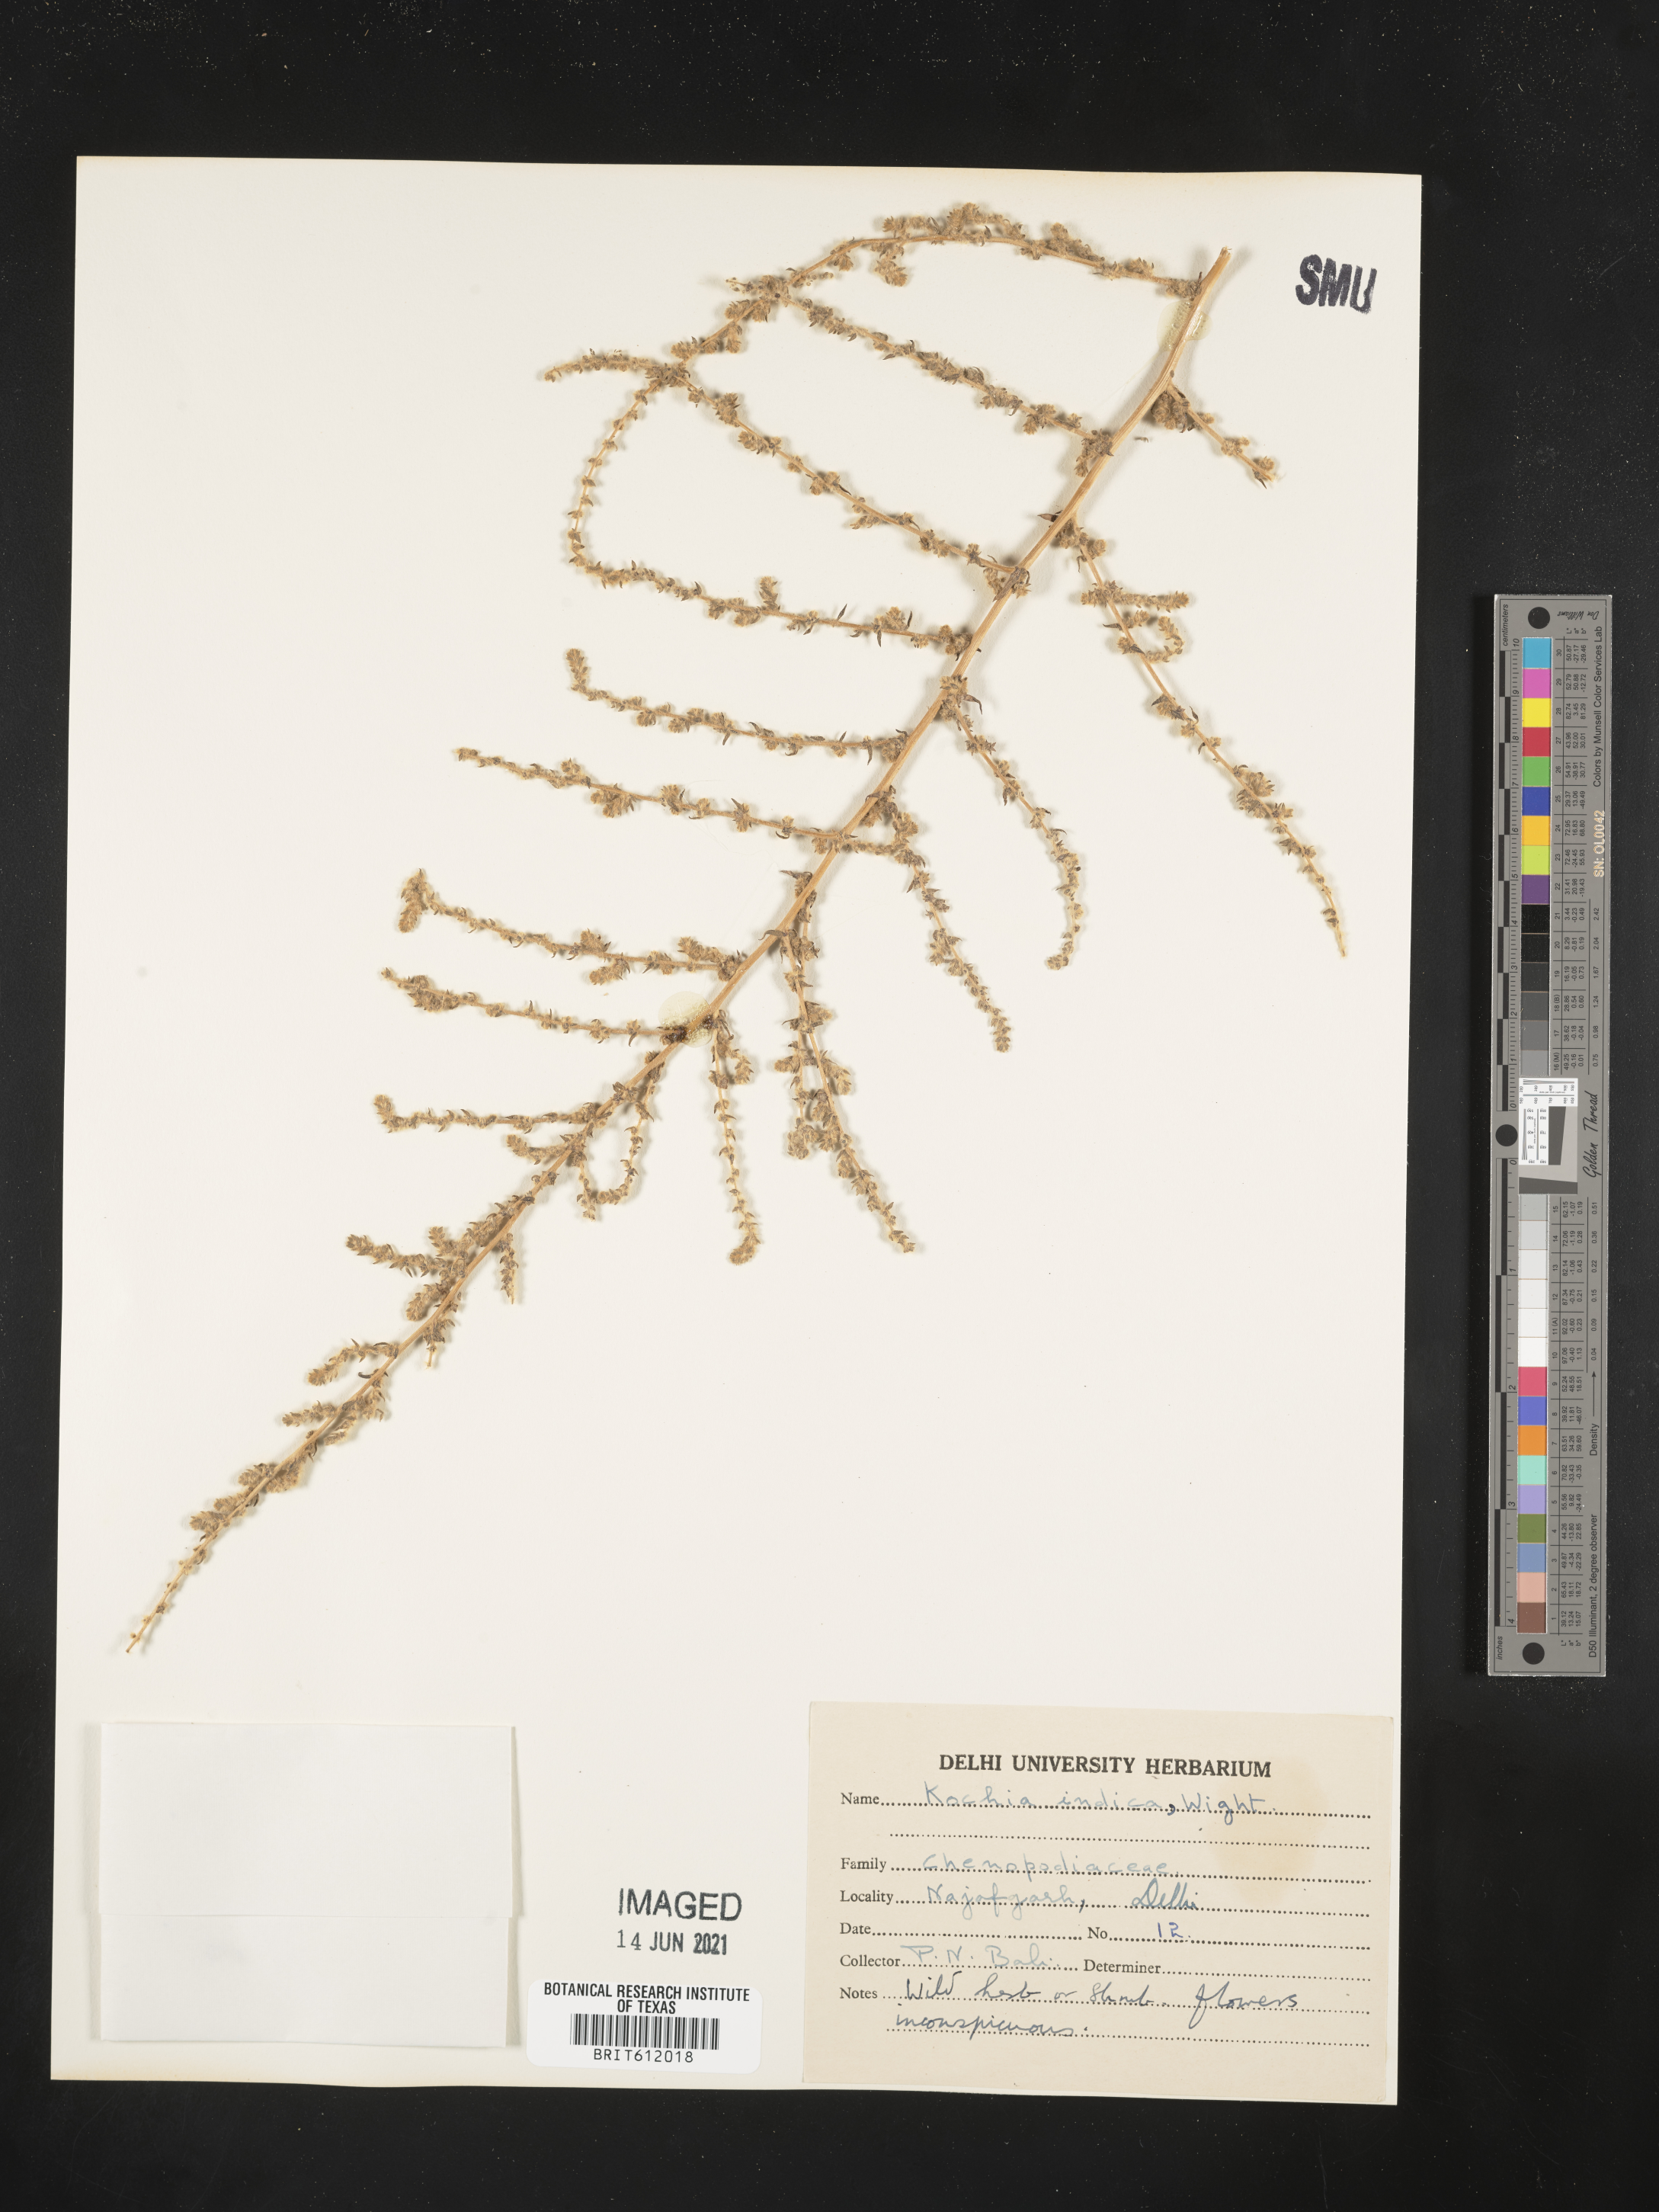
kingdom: Plantae
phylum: Tracheophyta
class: Magnoliopsida
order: Caryophyllales
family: Amaranthaceae
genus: Bassia
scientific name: Bassia indica
